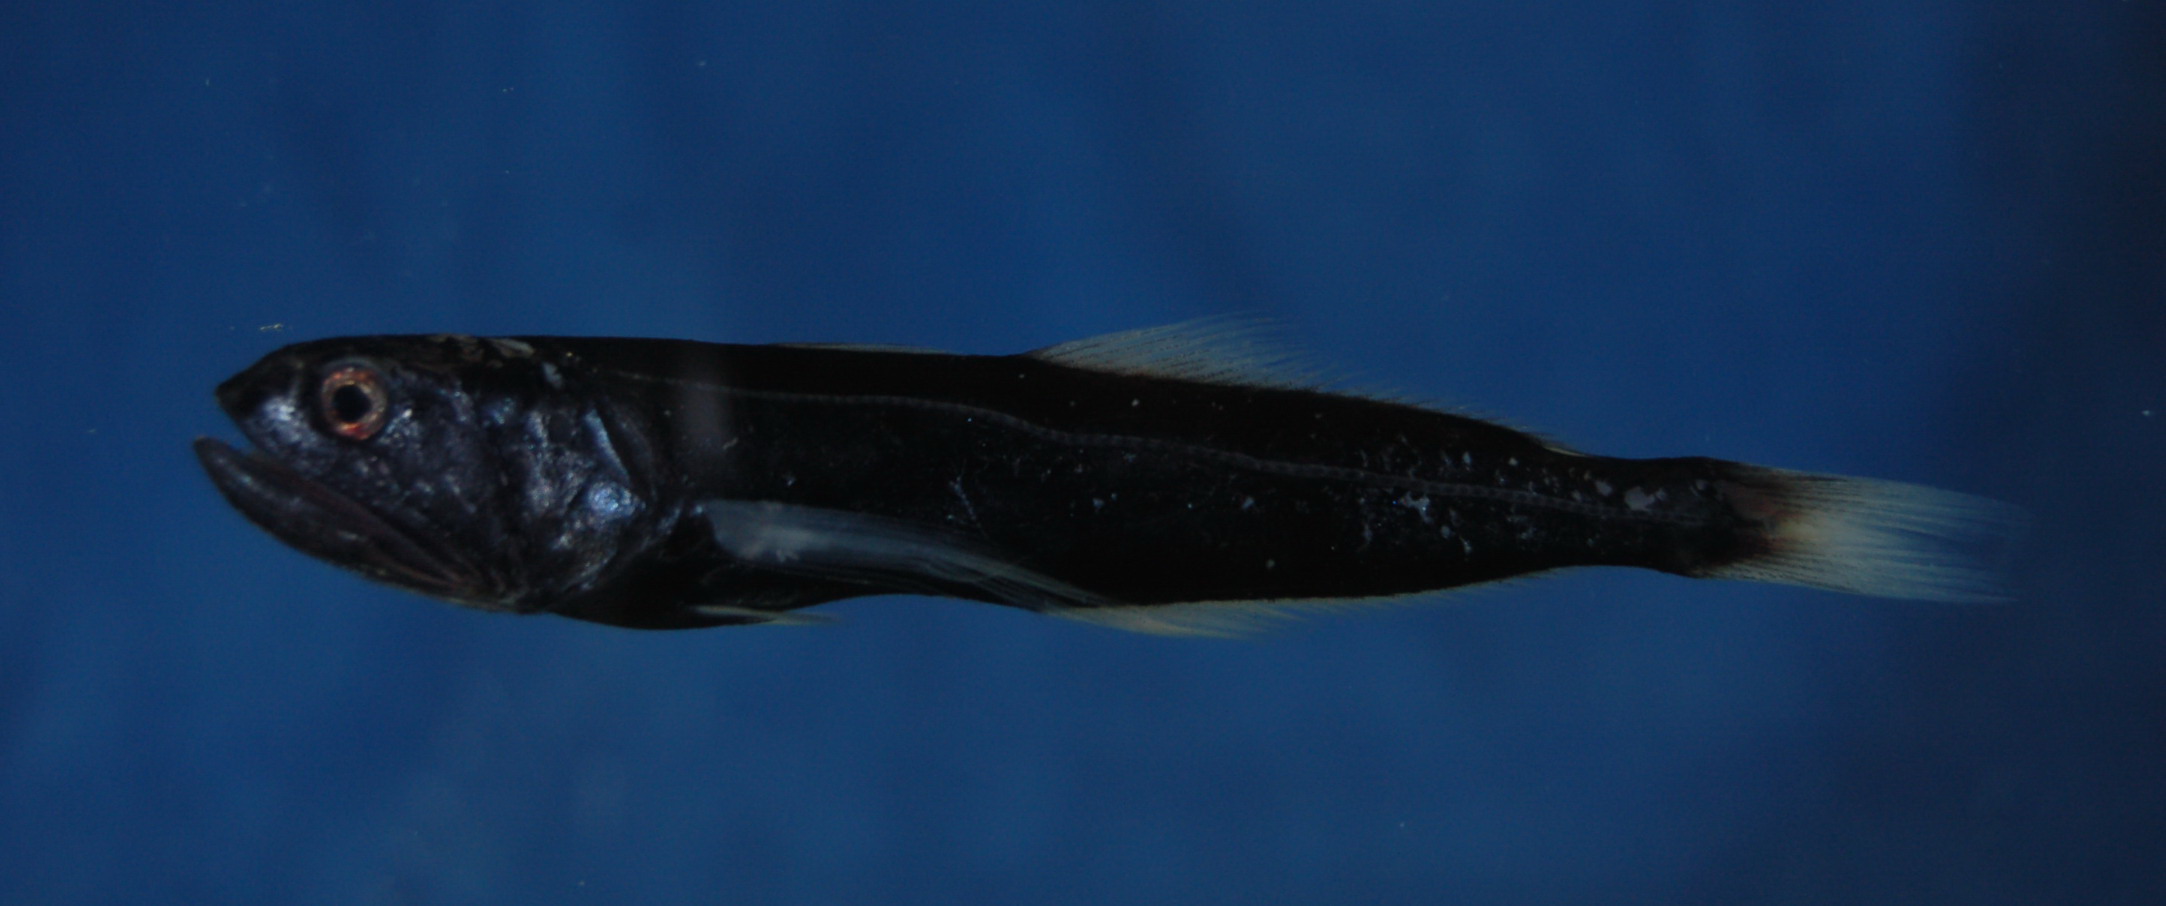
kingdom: Animalia
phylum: Chordata
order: Myctophiformes
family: Myctophidae
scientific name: Myctophidae
